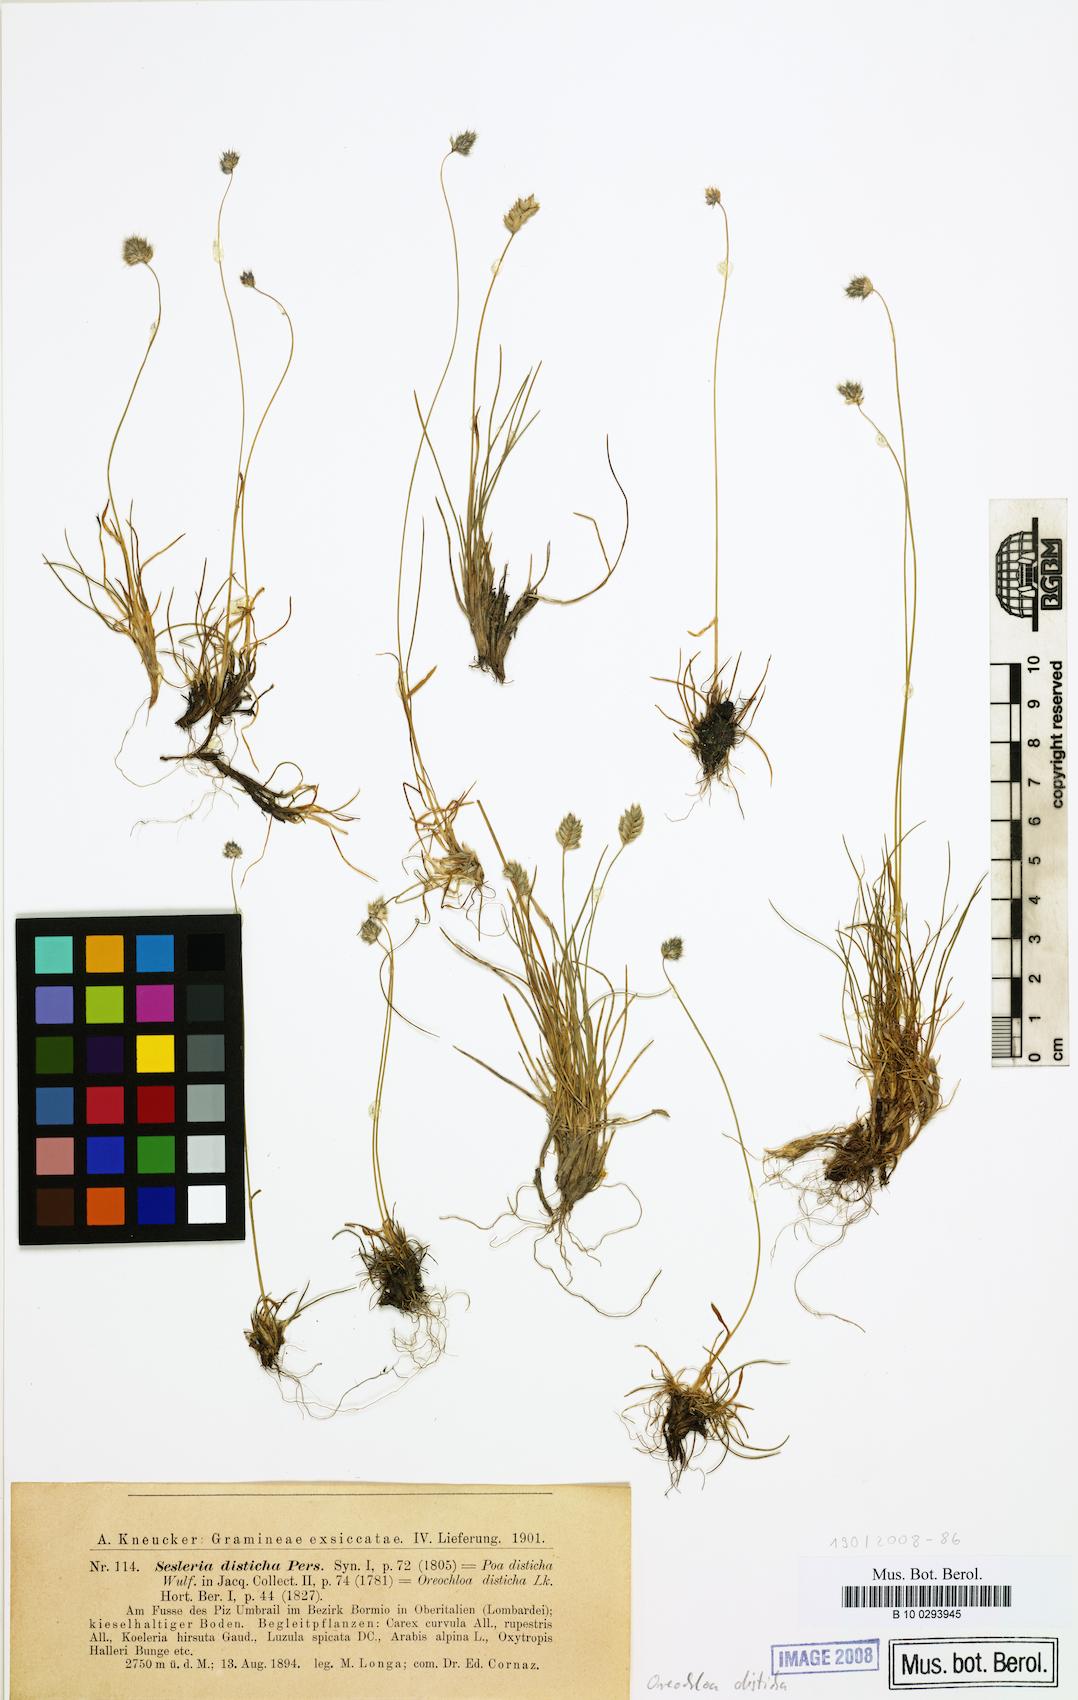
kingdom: Plantae
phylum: Tracheophyta
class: Liliopsida
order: Poales
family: Poaceae
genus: Oreochloa
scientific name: Oreochloa disticha
